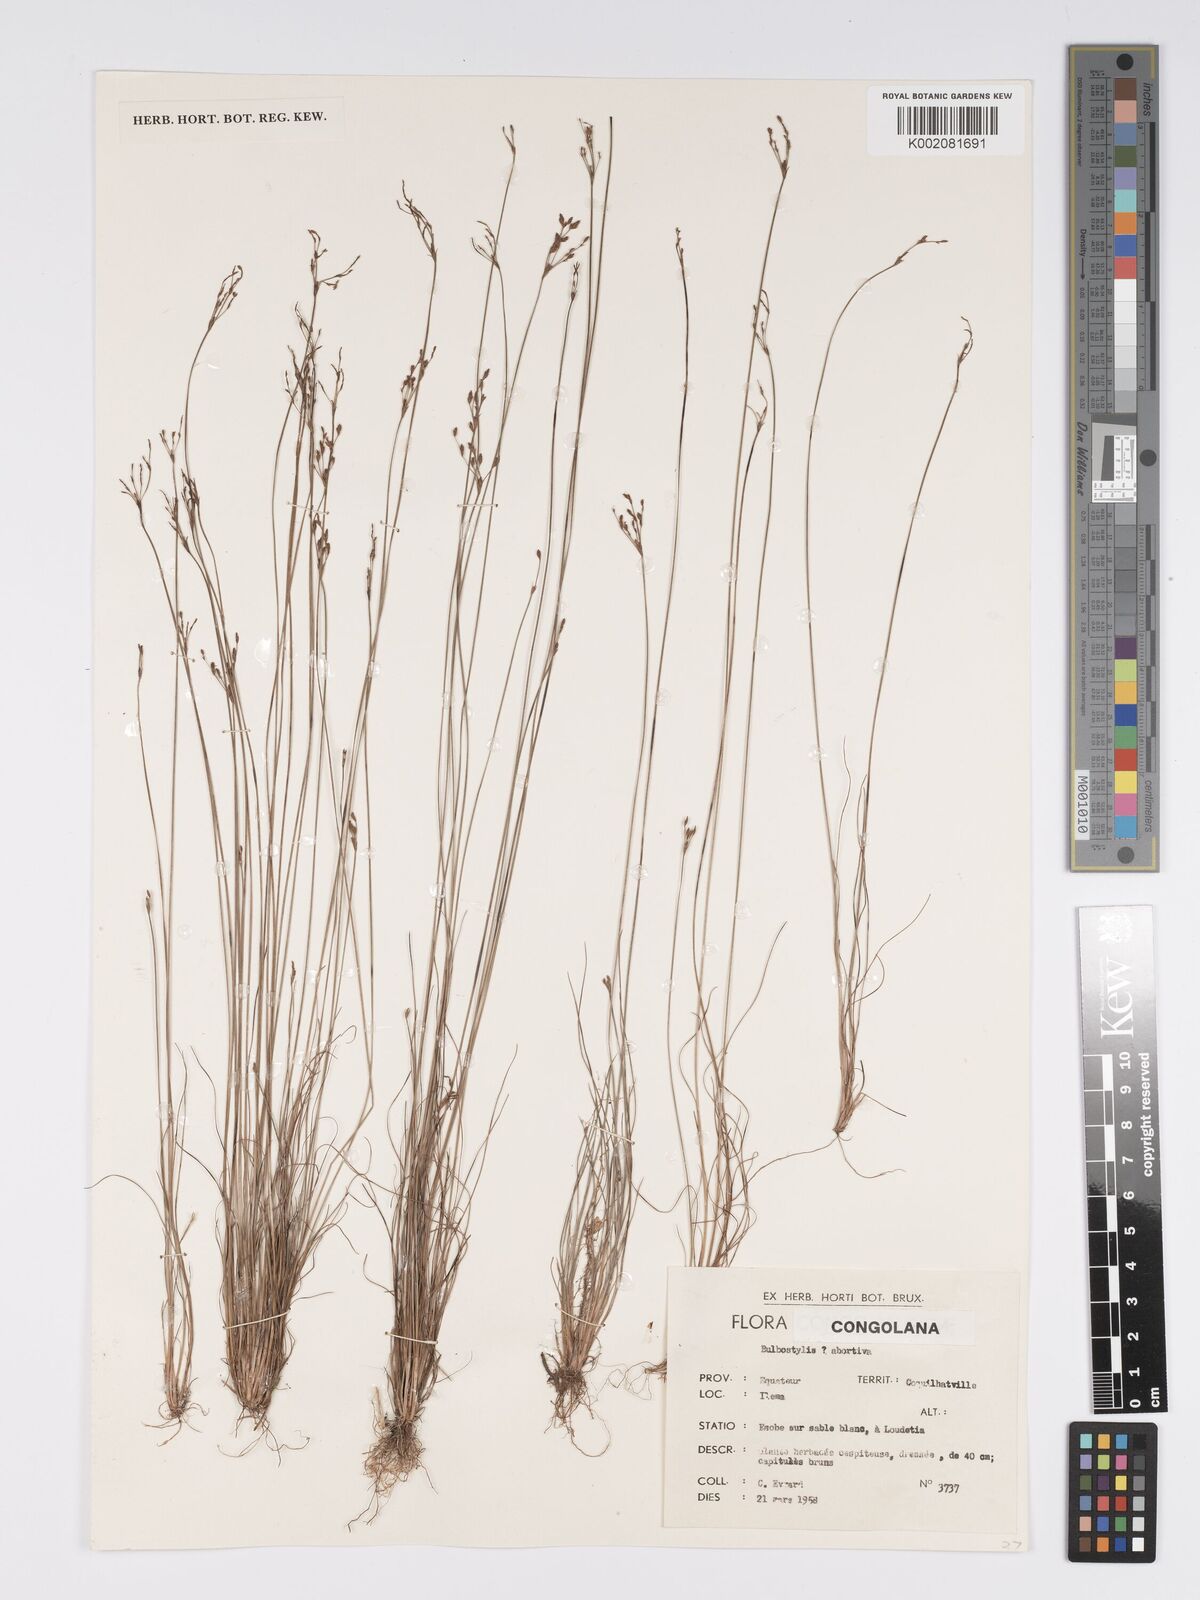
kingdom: Plantae
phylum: Tracheophyta
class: Liliopsida
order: Poales
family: Cyperaceae
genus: Bulbostylis
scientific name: Bulbostylis abortiva
